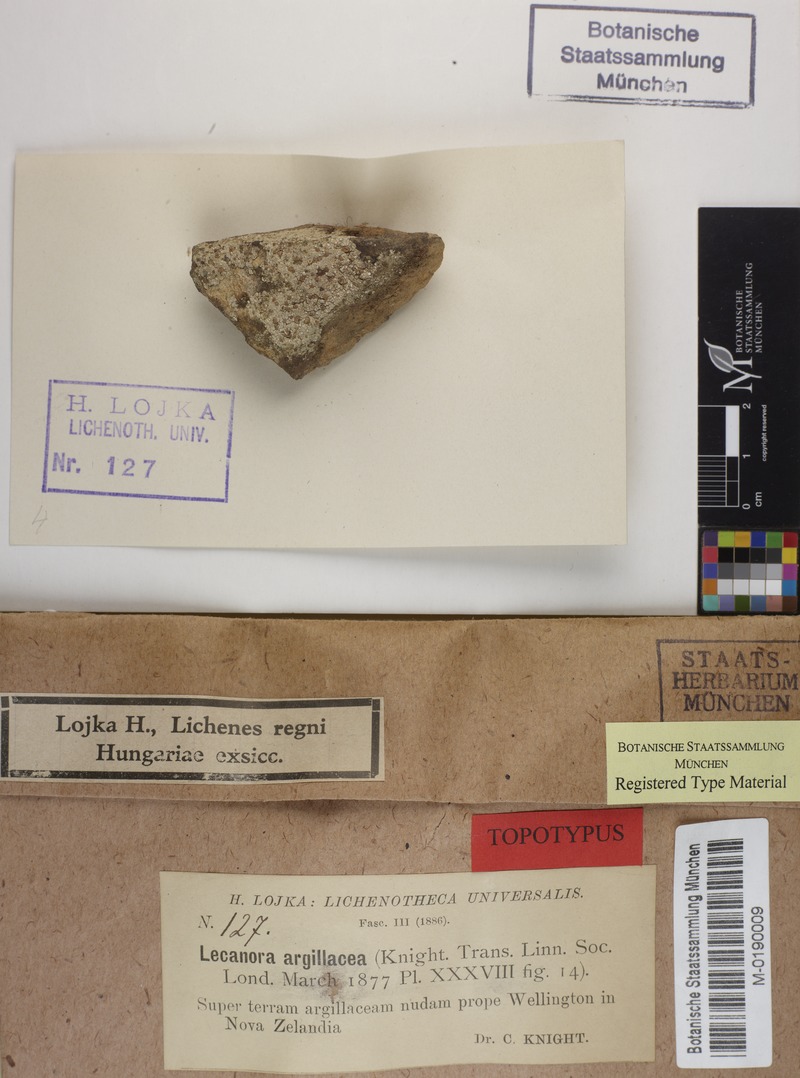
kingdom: Fungi
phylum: Ascomycota
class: Lecanoromycetes
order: Baeomycetales
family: Trapeliaceae
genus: Placopsis
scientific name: Placopsis
